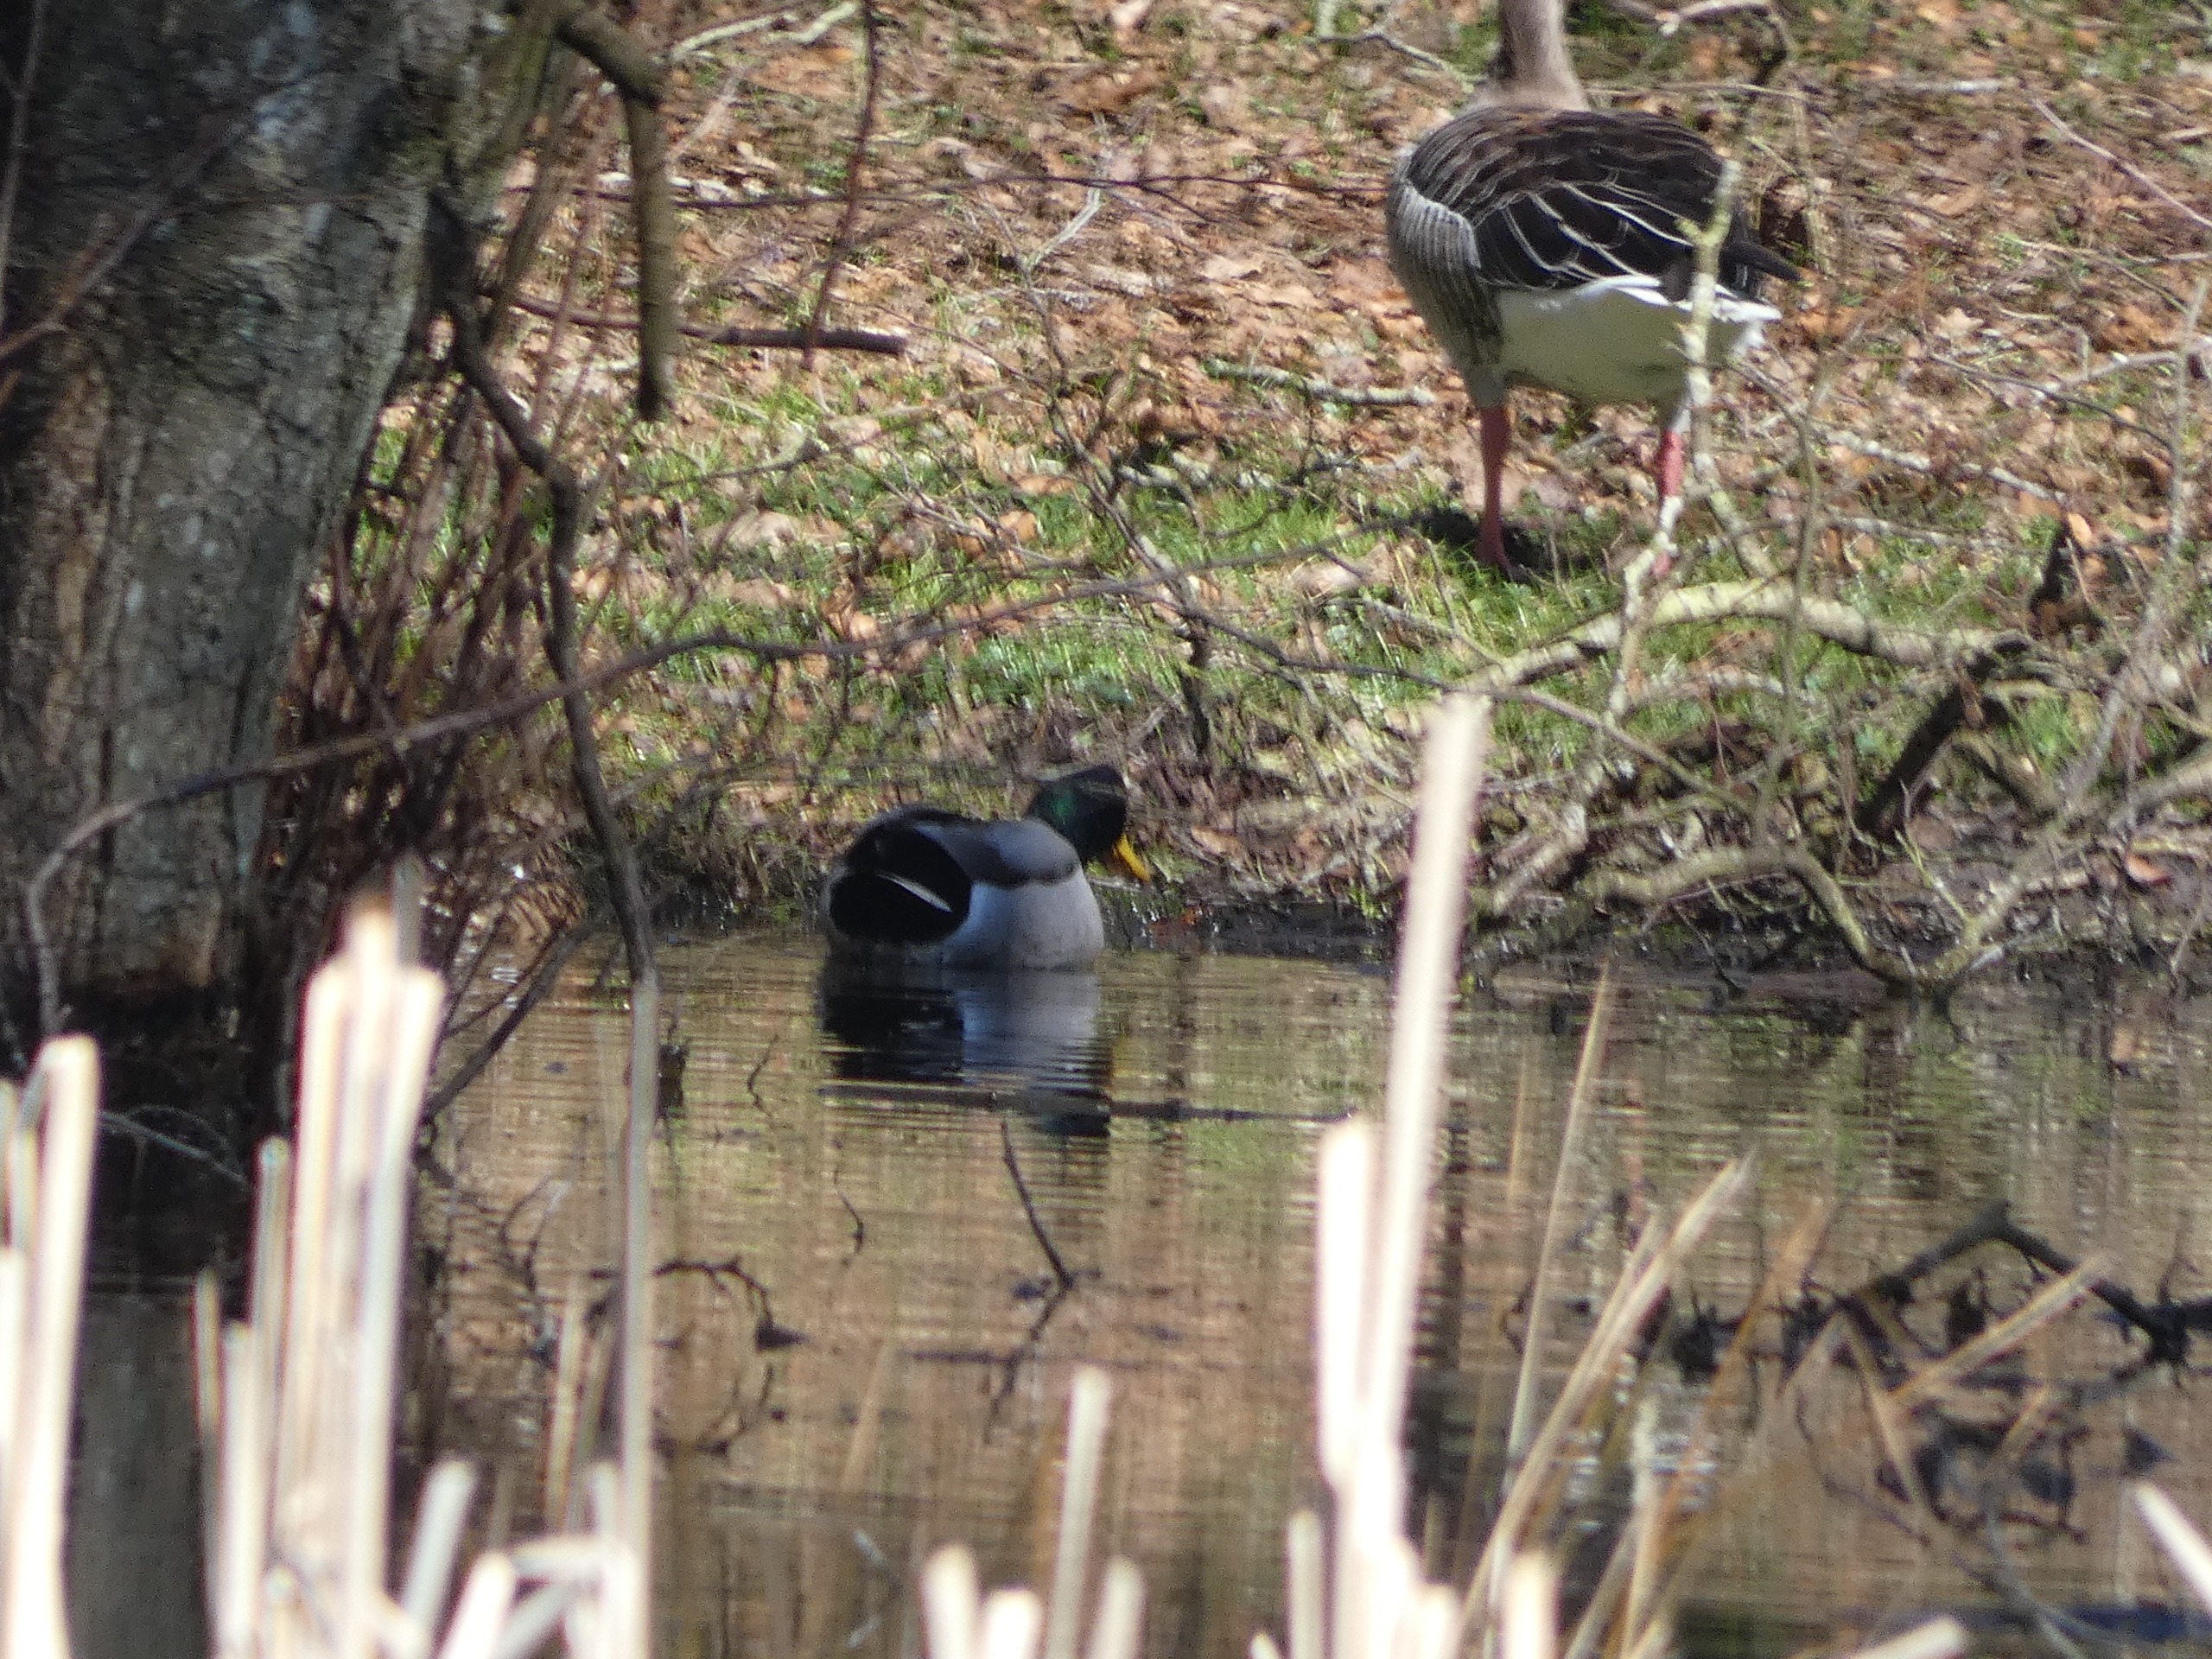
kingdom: Animalia
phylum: Chordata
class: Aves
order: Anseriformes
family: Anatidae
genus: Anas
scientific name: Anas platyrhynchos
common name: Gråand
